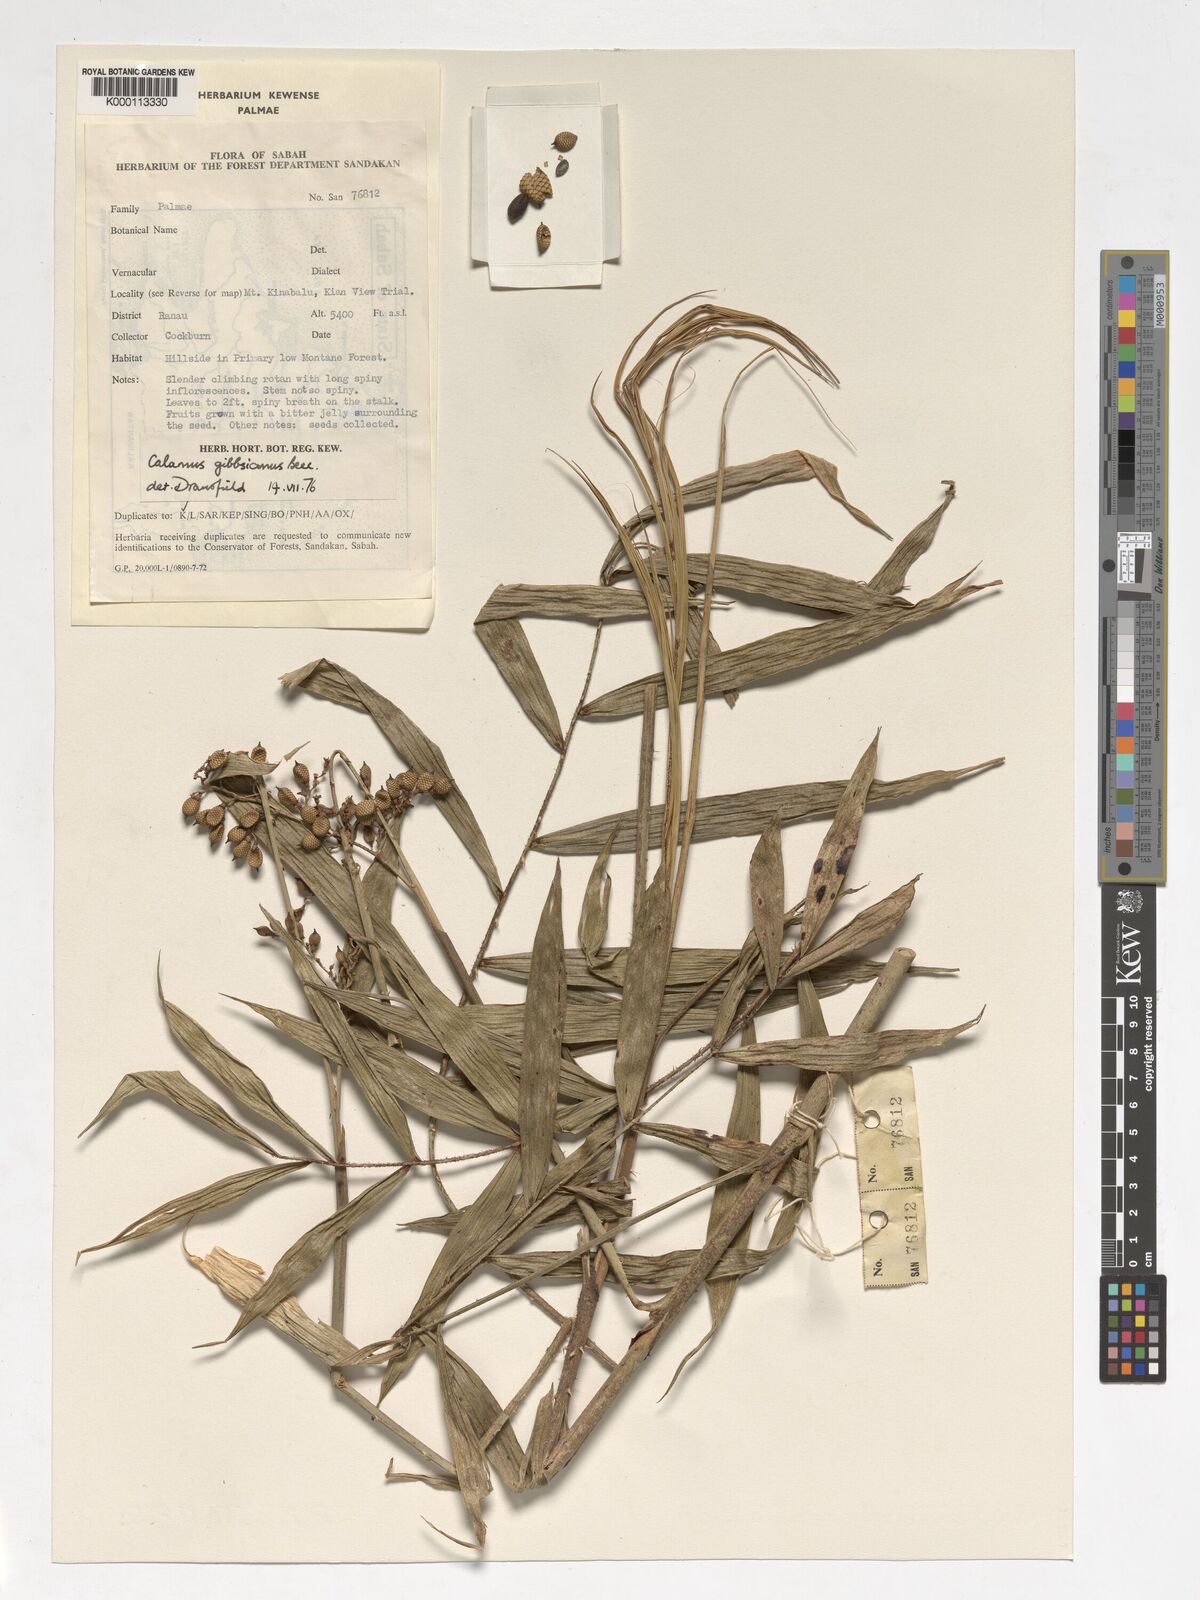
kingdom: Plantae
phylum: Tracheophyta
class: Liliopsida
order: Arecales
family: Arecaceae
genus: Calamus
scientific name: Calamus gibbsianus
